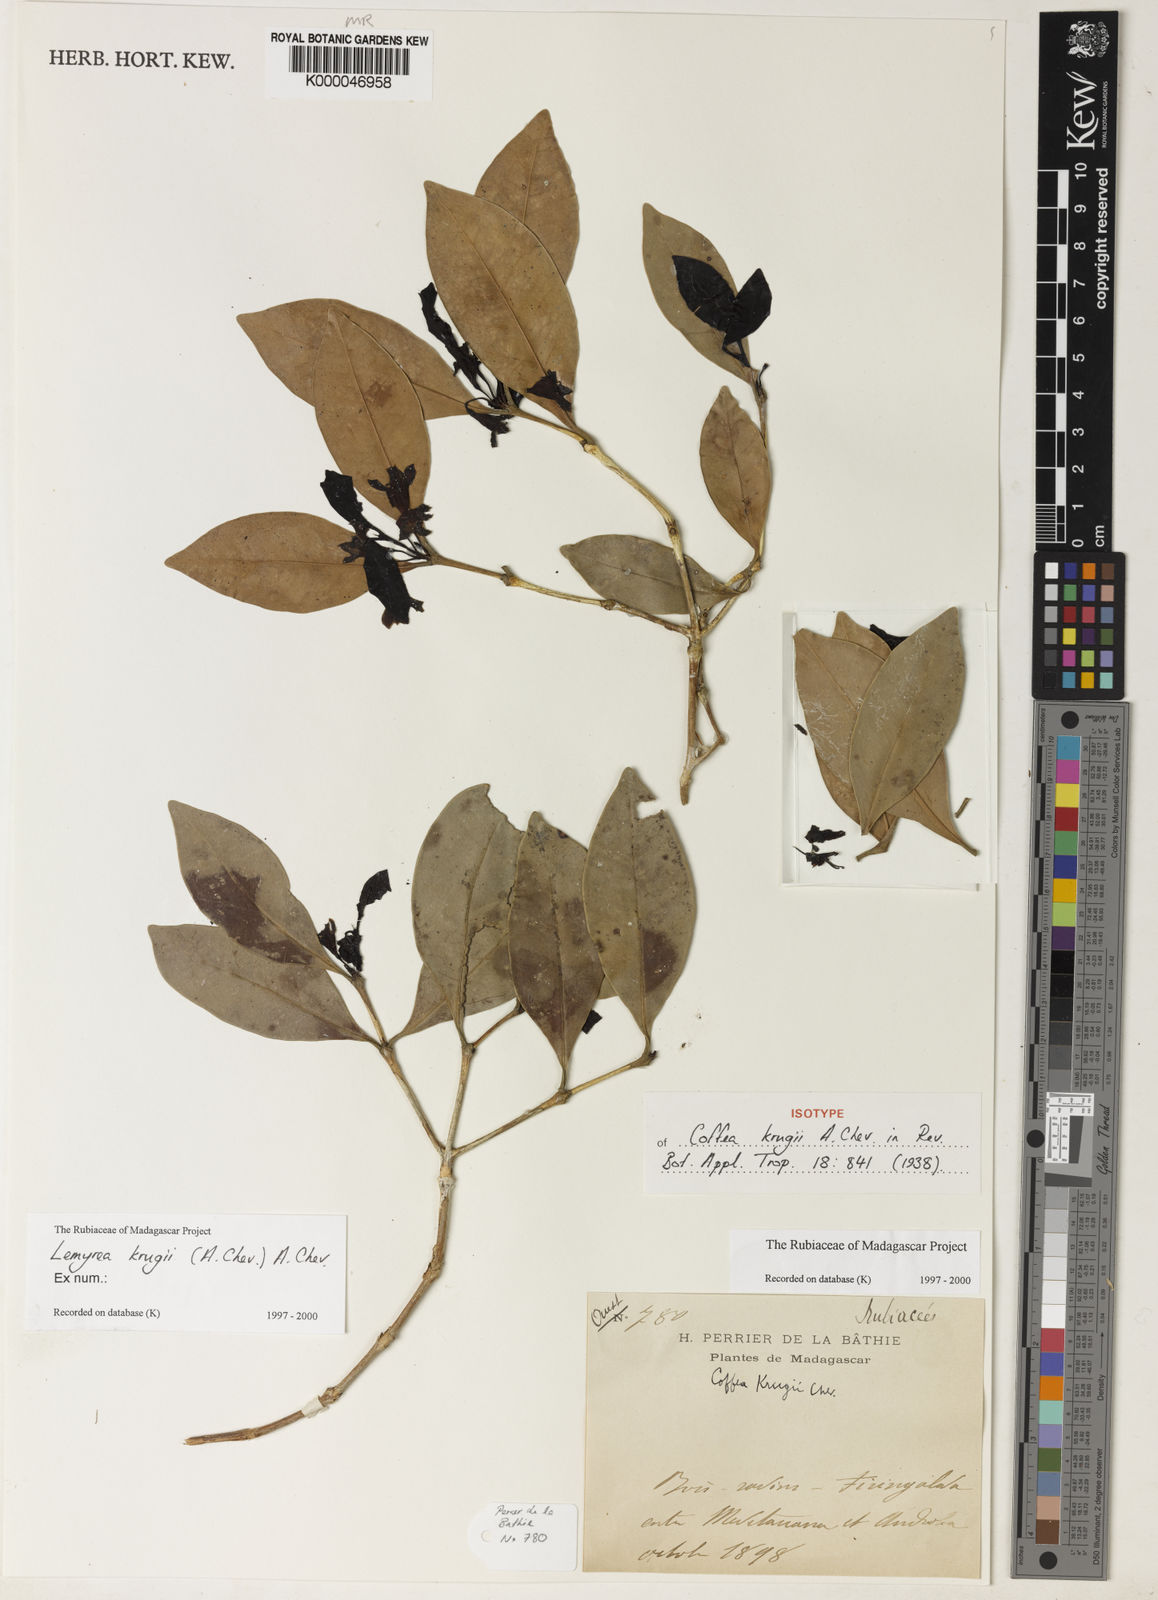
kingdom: Plantae
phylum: Tracheophyta
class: Magnoliopsida
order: Gentianales
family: Rubiaceae
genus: Lemyrea
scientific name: Lemyrea krugii
